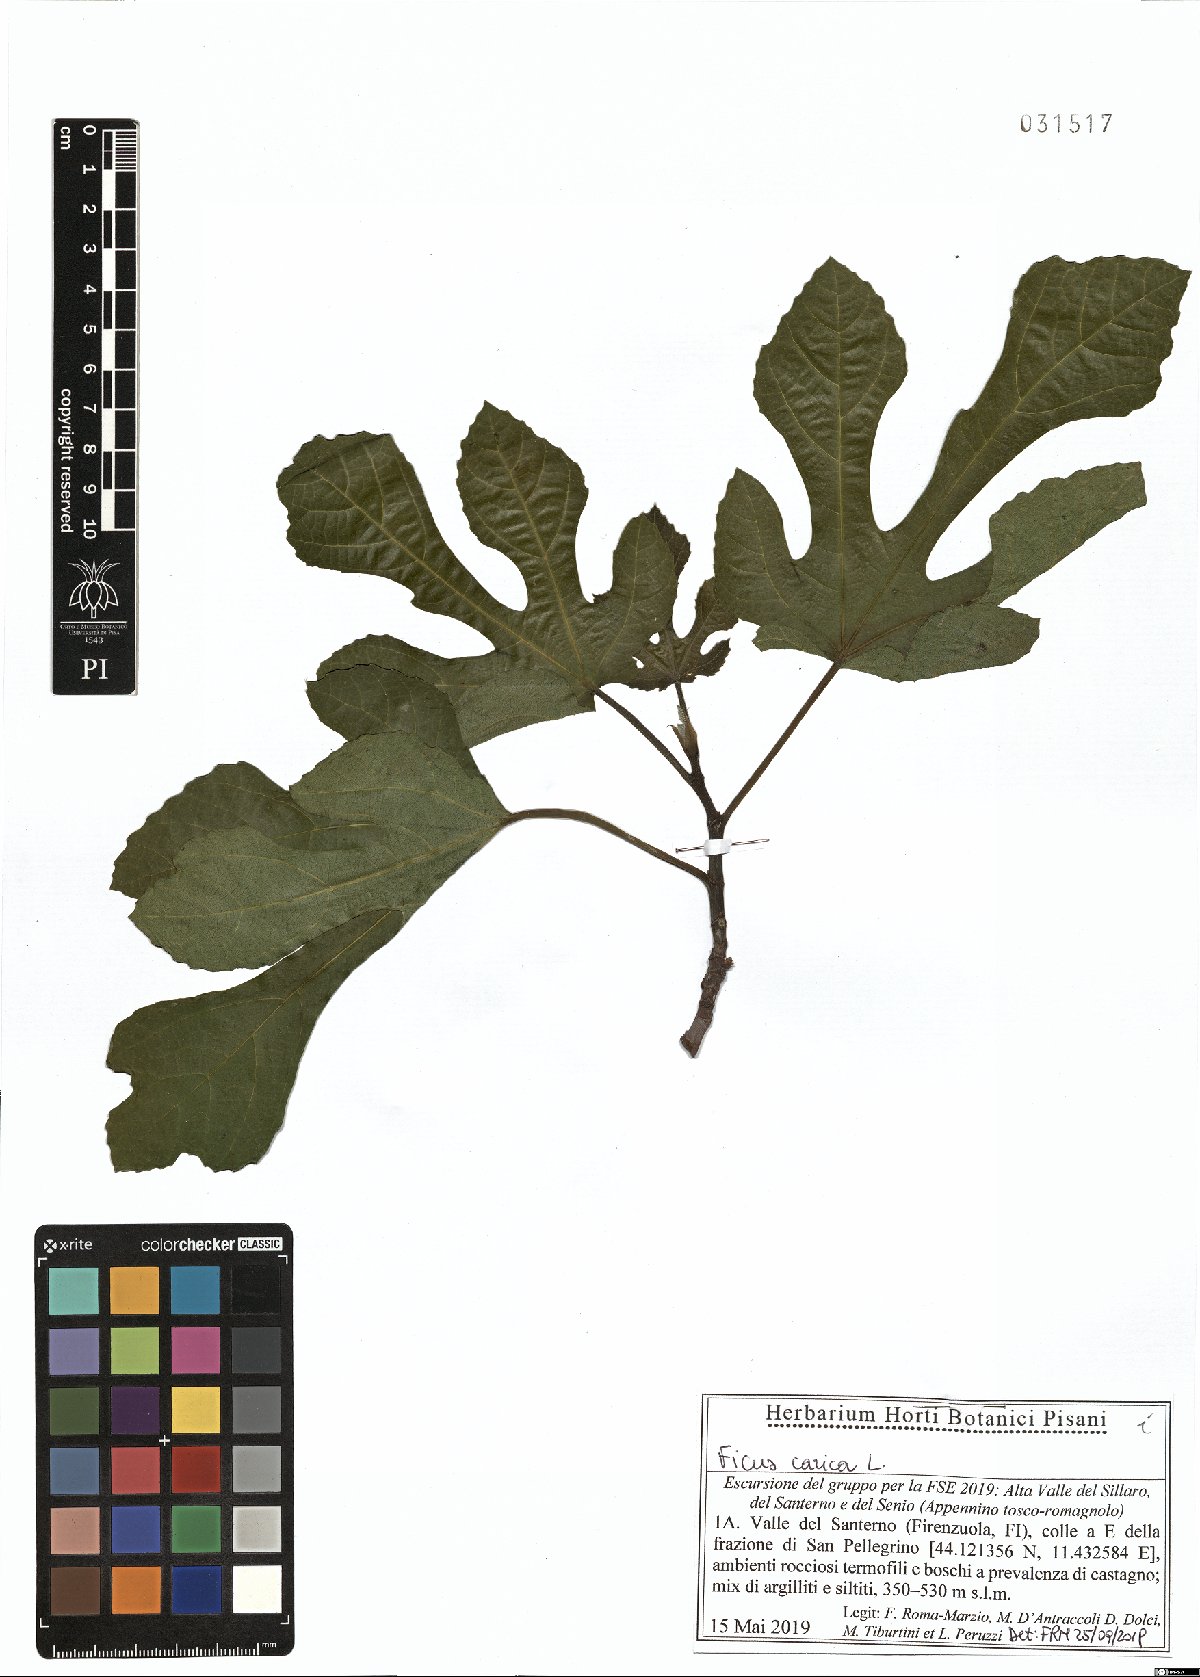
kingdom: Plantae
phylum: Tracheophyta
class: Magnoliopsida
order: Rosales
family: Moraceae
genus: Ficus
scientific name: Ficus carica
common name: Fig
